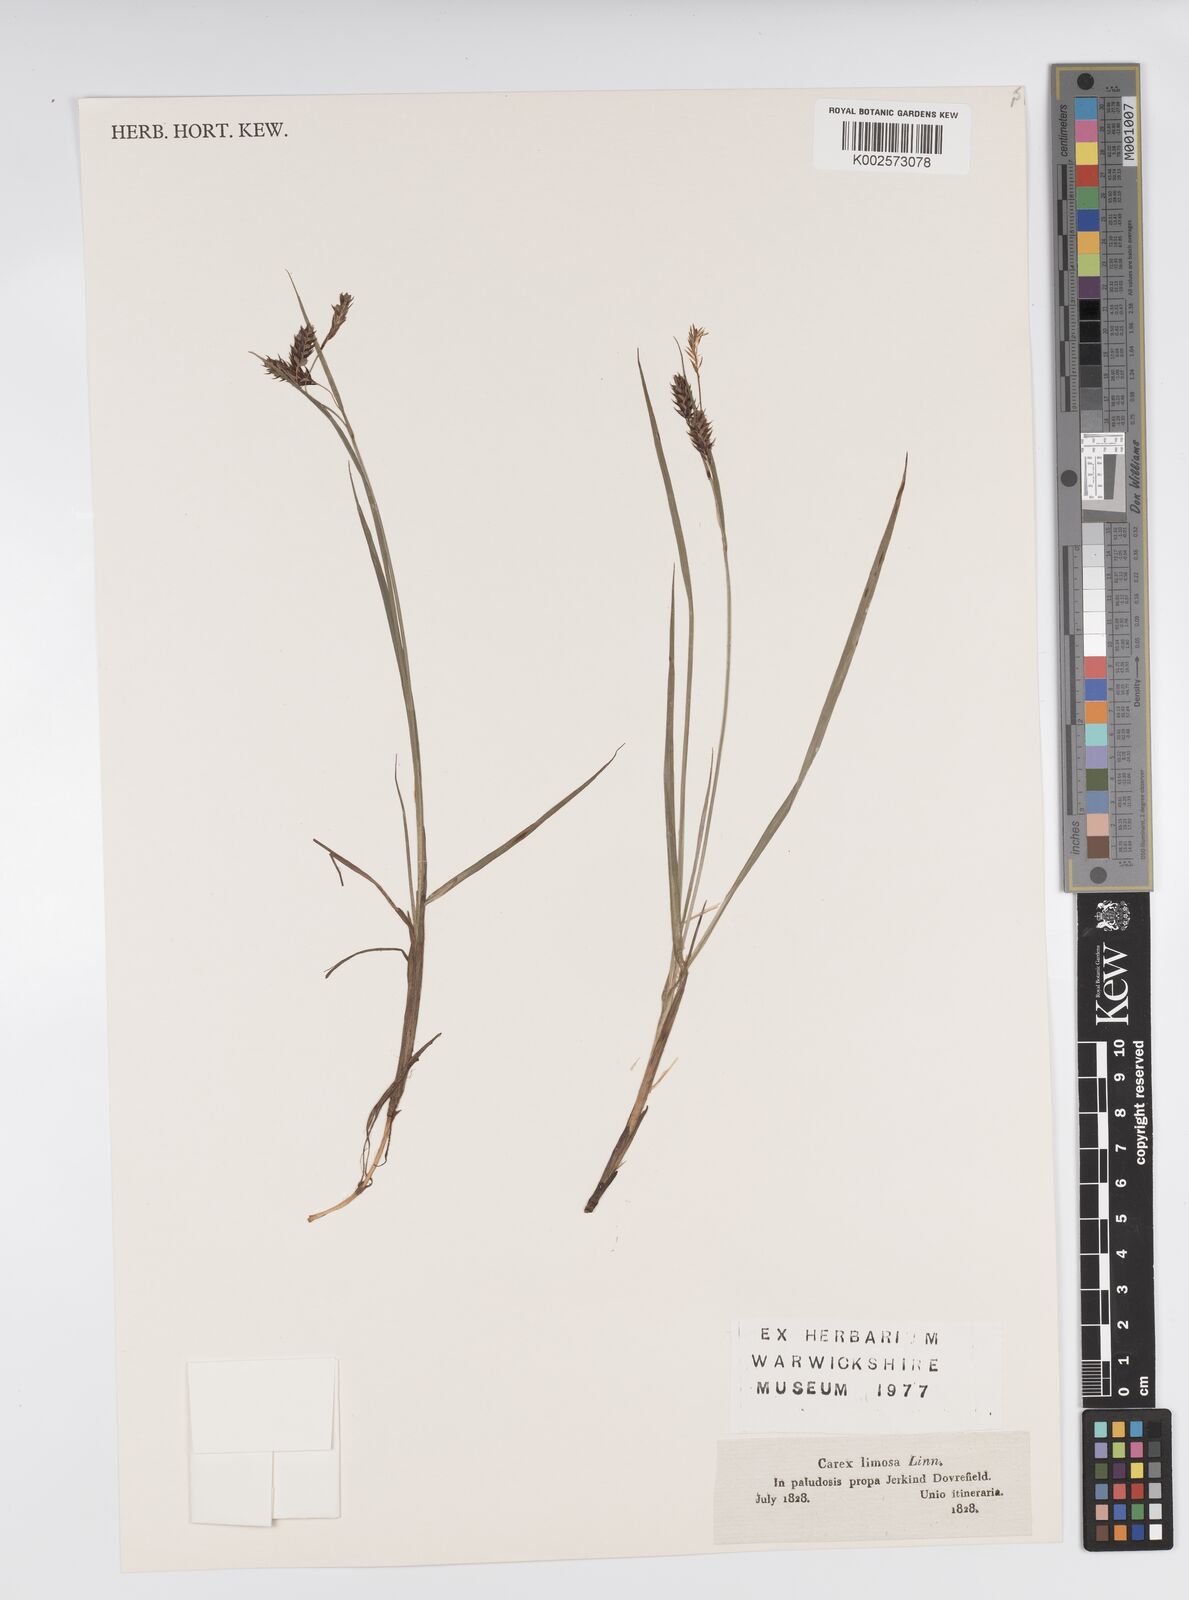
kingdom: Plantae
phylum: Tracheophyta
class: Liliopsida
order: Poales
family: Cyperaceae
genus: Carex
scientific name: Carex limosa
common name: Bog sedge
